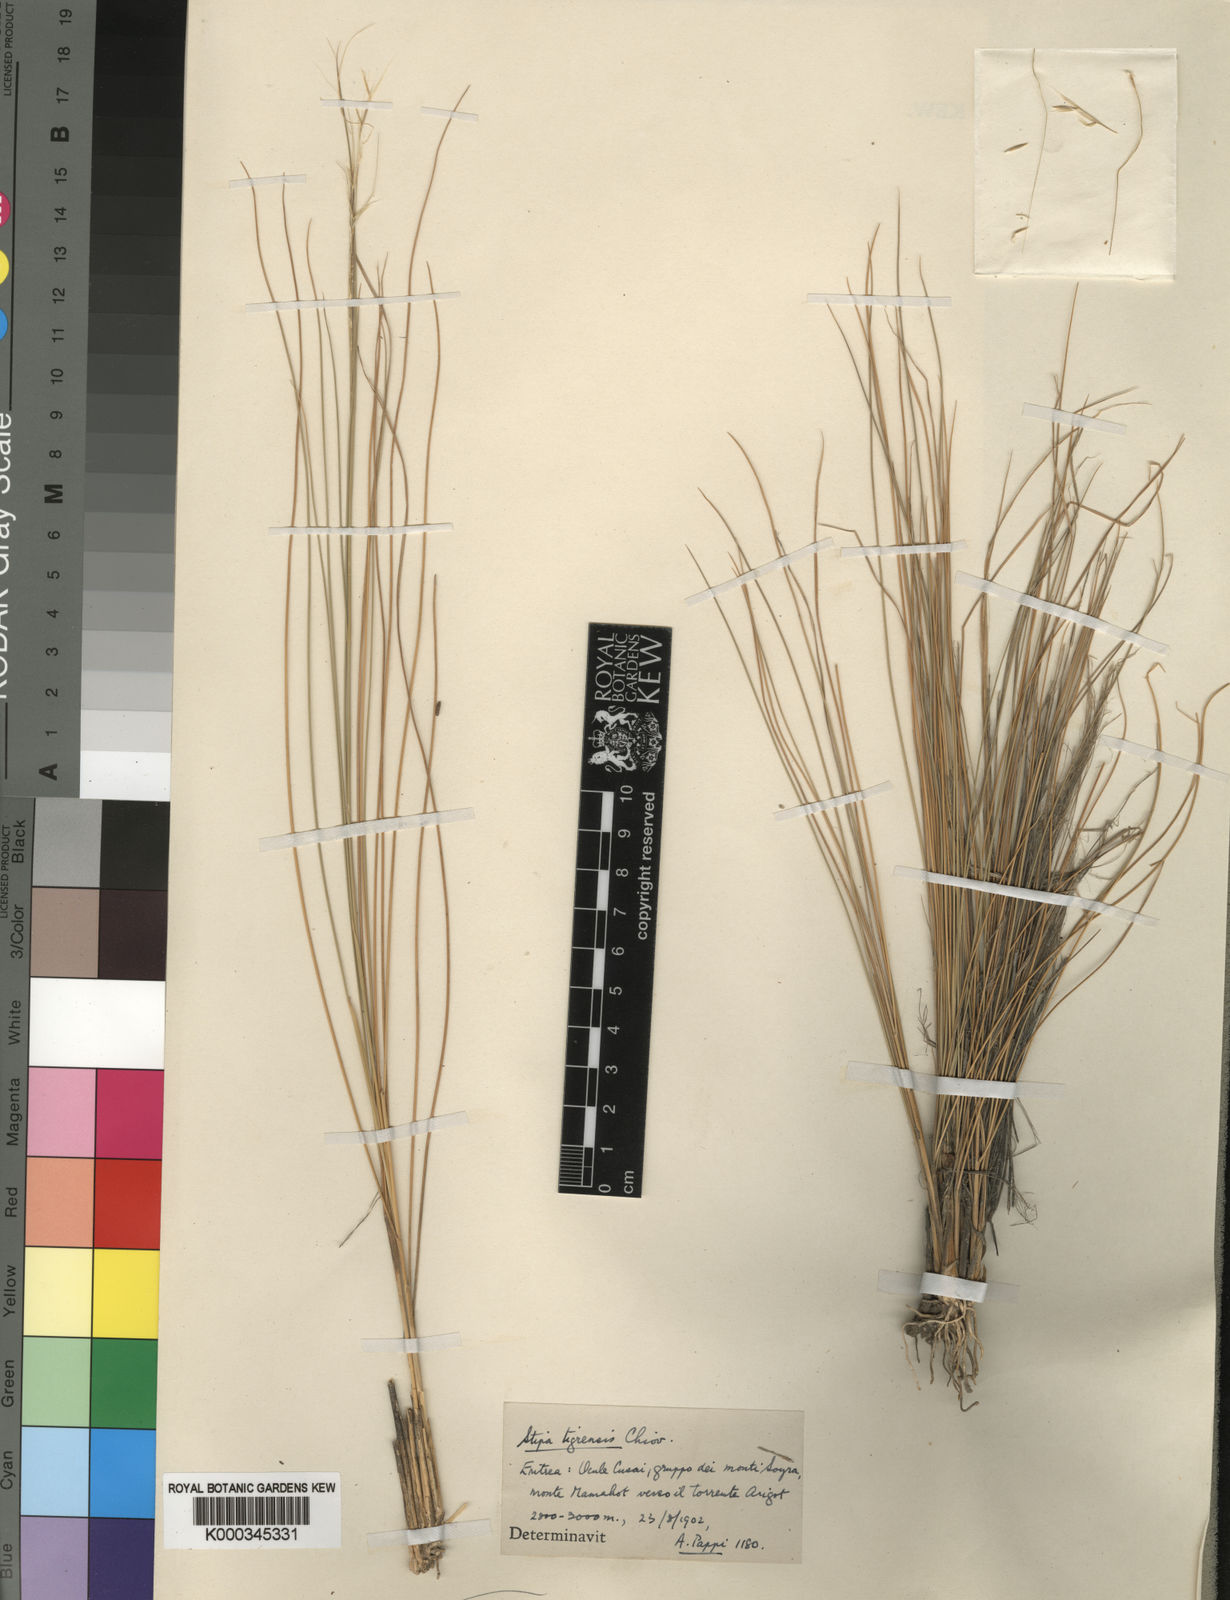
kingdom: Plantae
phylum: Tracheophyta
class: Liliopsida
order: Poales
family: Poaceae
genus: Stipa
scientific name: Stipa tigrensis
